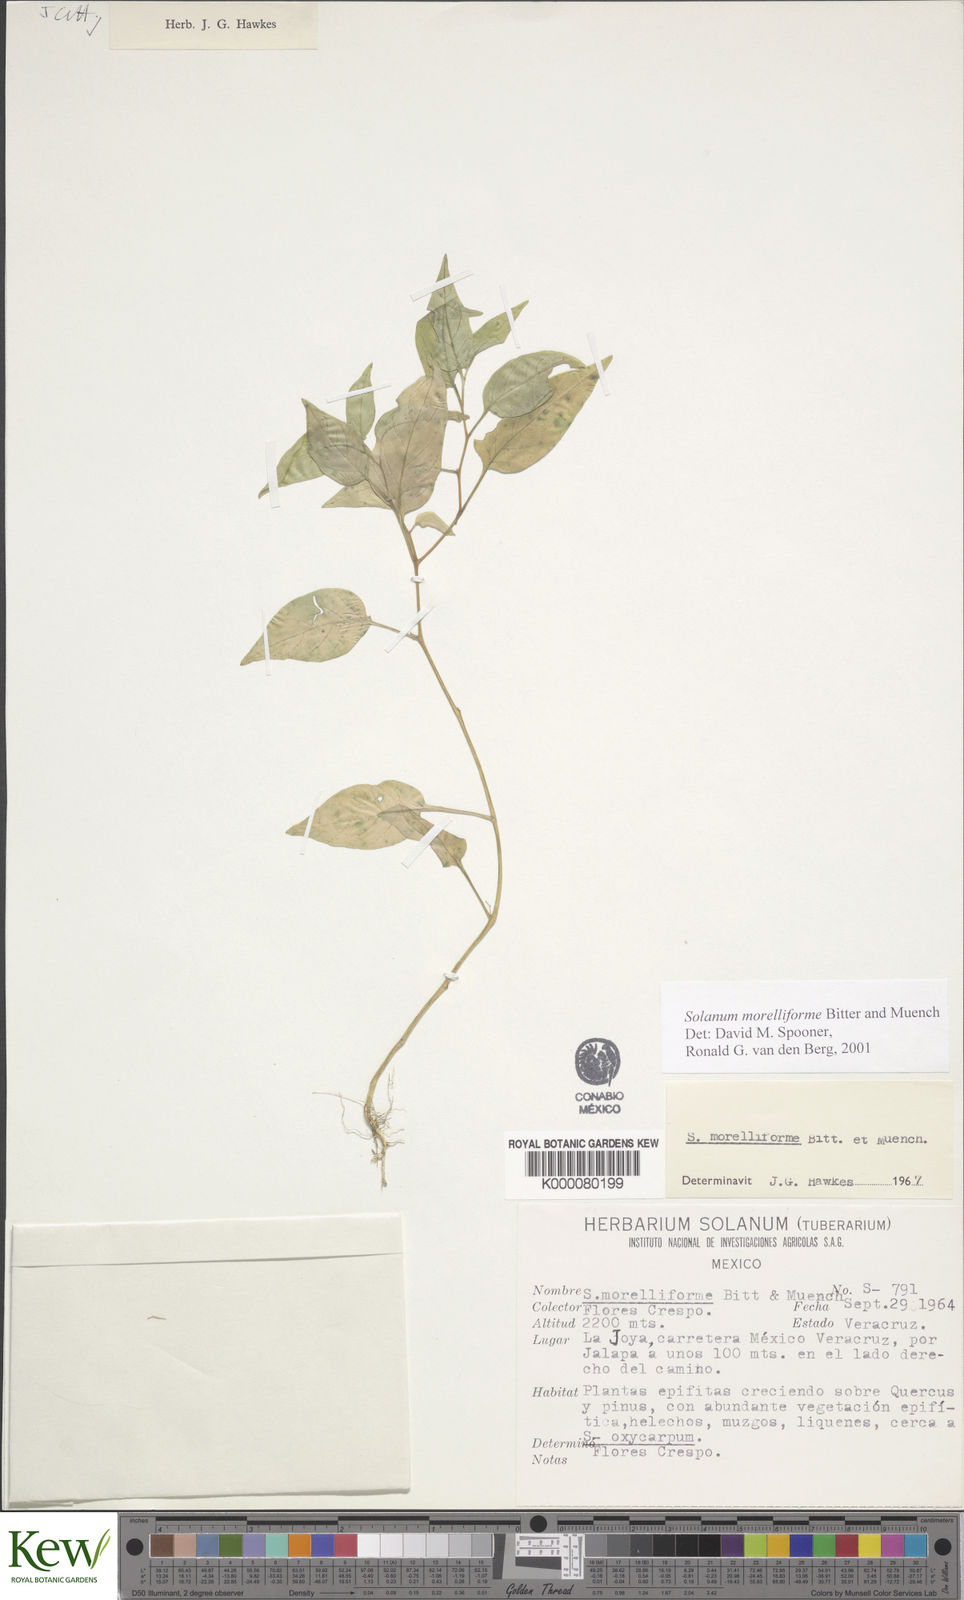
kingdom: Plantae
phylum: Tracheophyta
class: Magnoliopsida
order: Solanales
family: Solanaceae
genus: Solanum
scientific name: Solanum morelliforme
